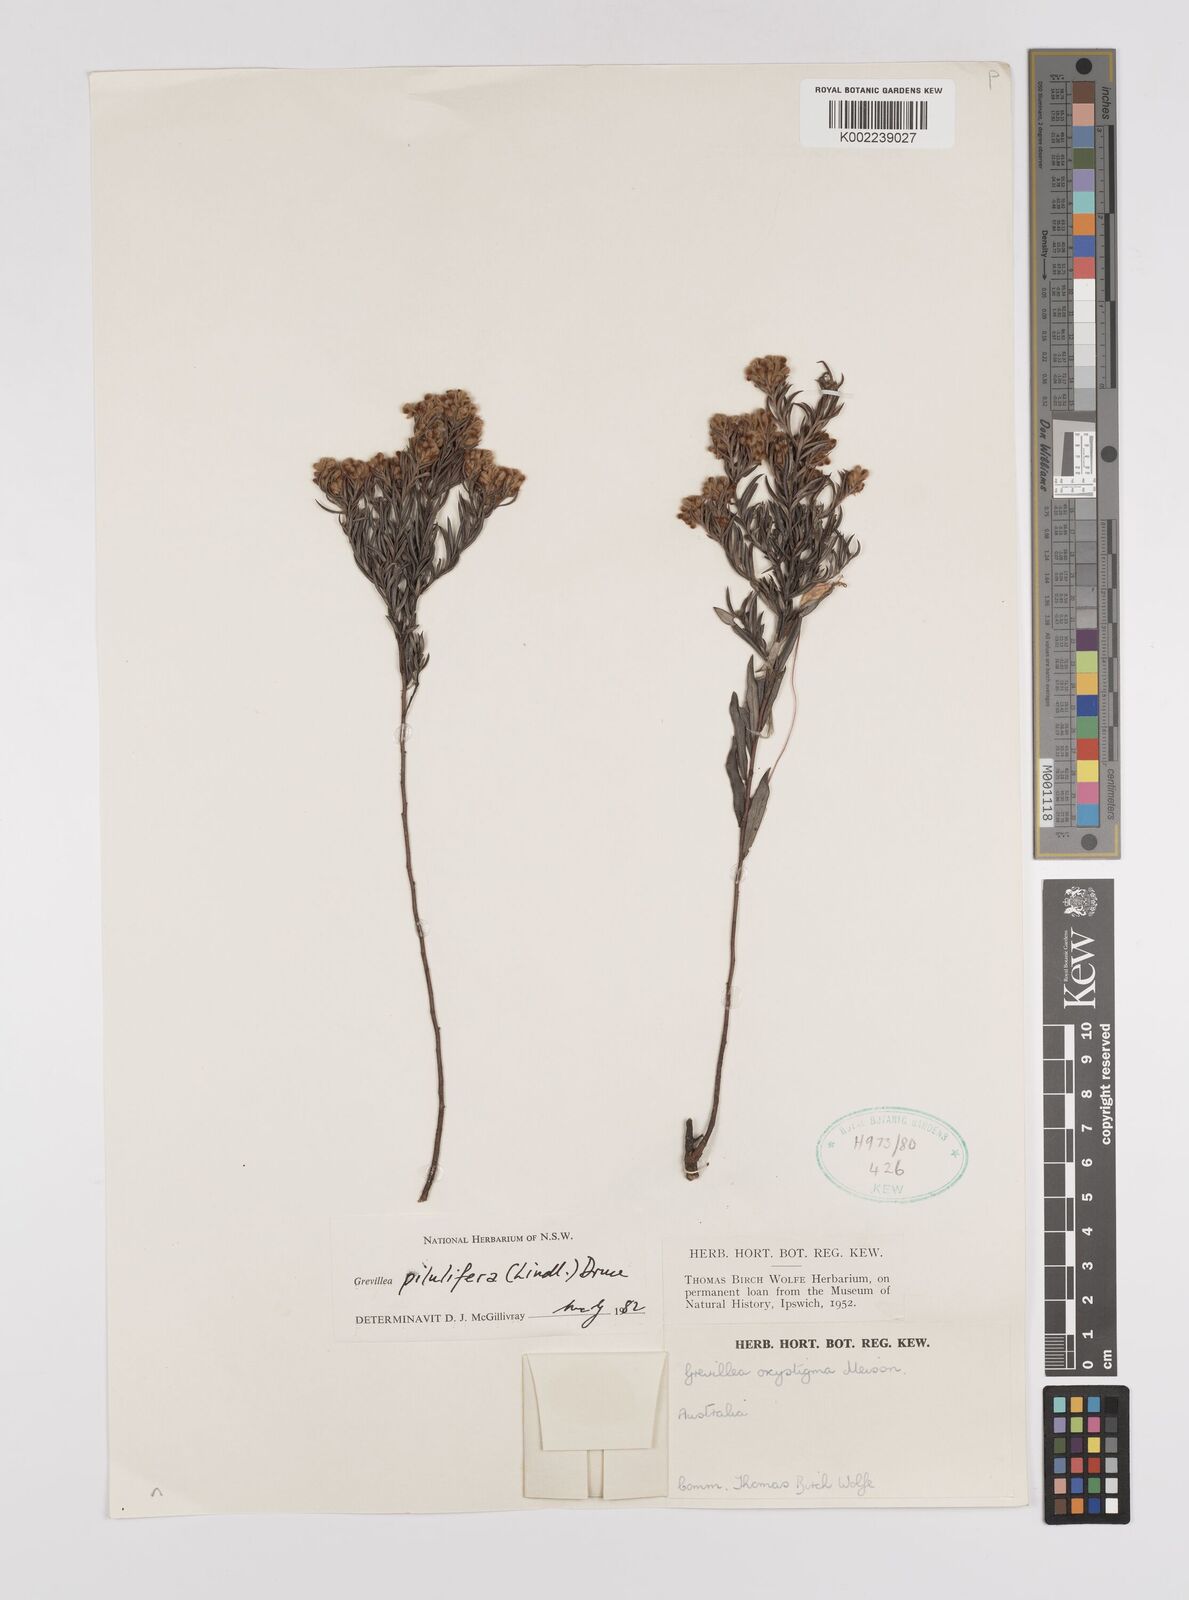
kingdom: Plantae
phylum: Tracheophyta
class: Magnoliopsida
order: Proteales
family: Proteaceae
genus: Grevillea
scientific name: Grevillea pilulifera
